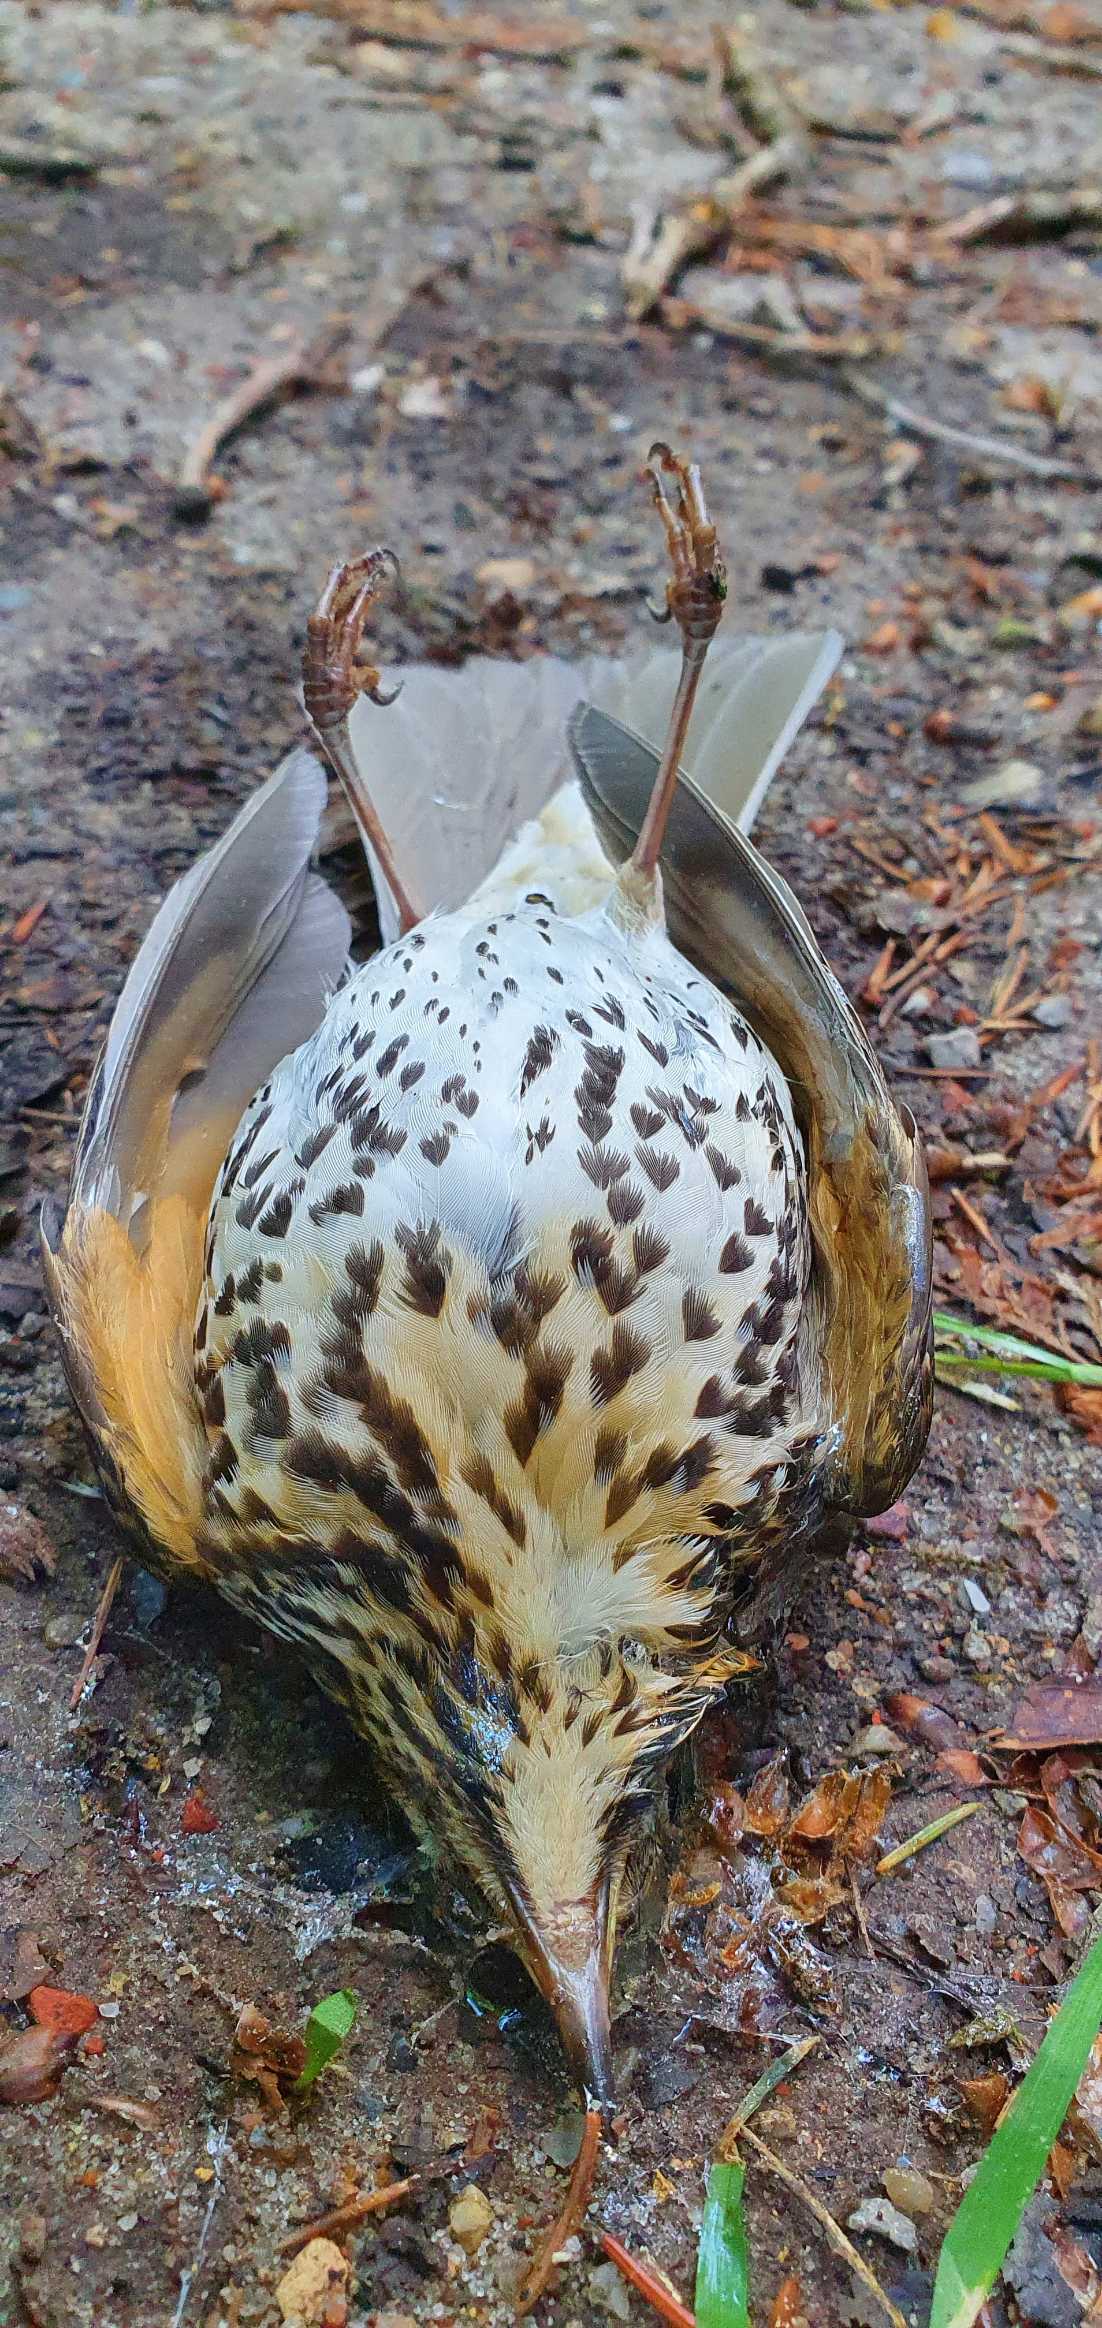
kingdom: Animalia
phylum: Chordata
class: Aves
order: Passeriformes
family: Turdidae
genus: Turdus
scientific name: Turdus philomelos
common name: Sangdrossel
